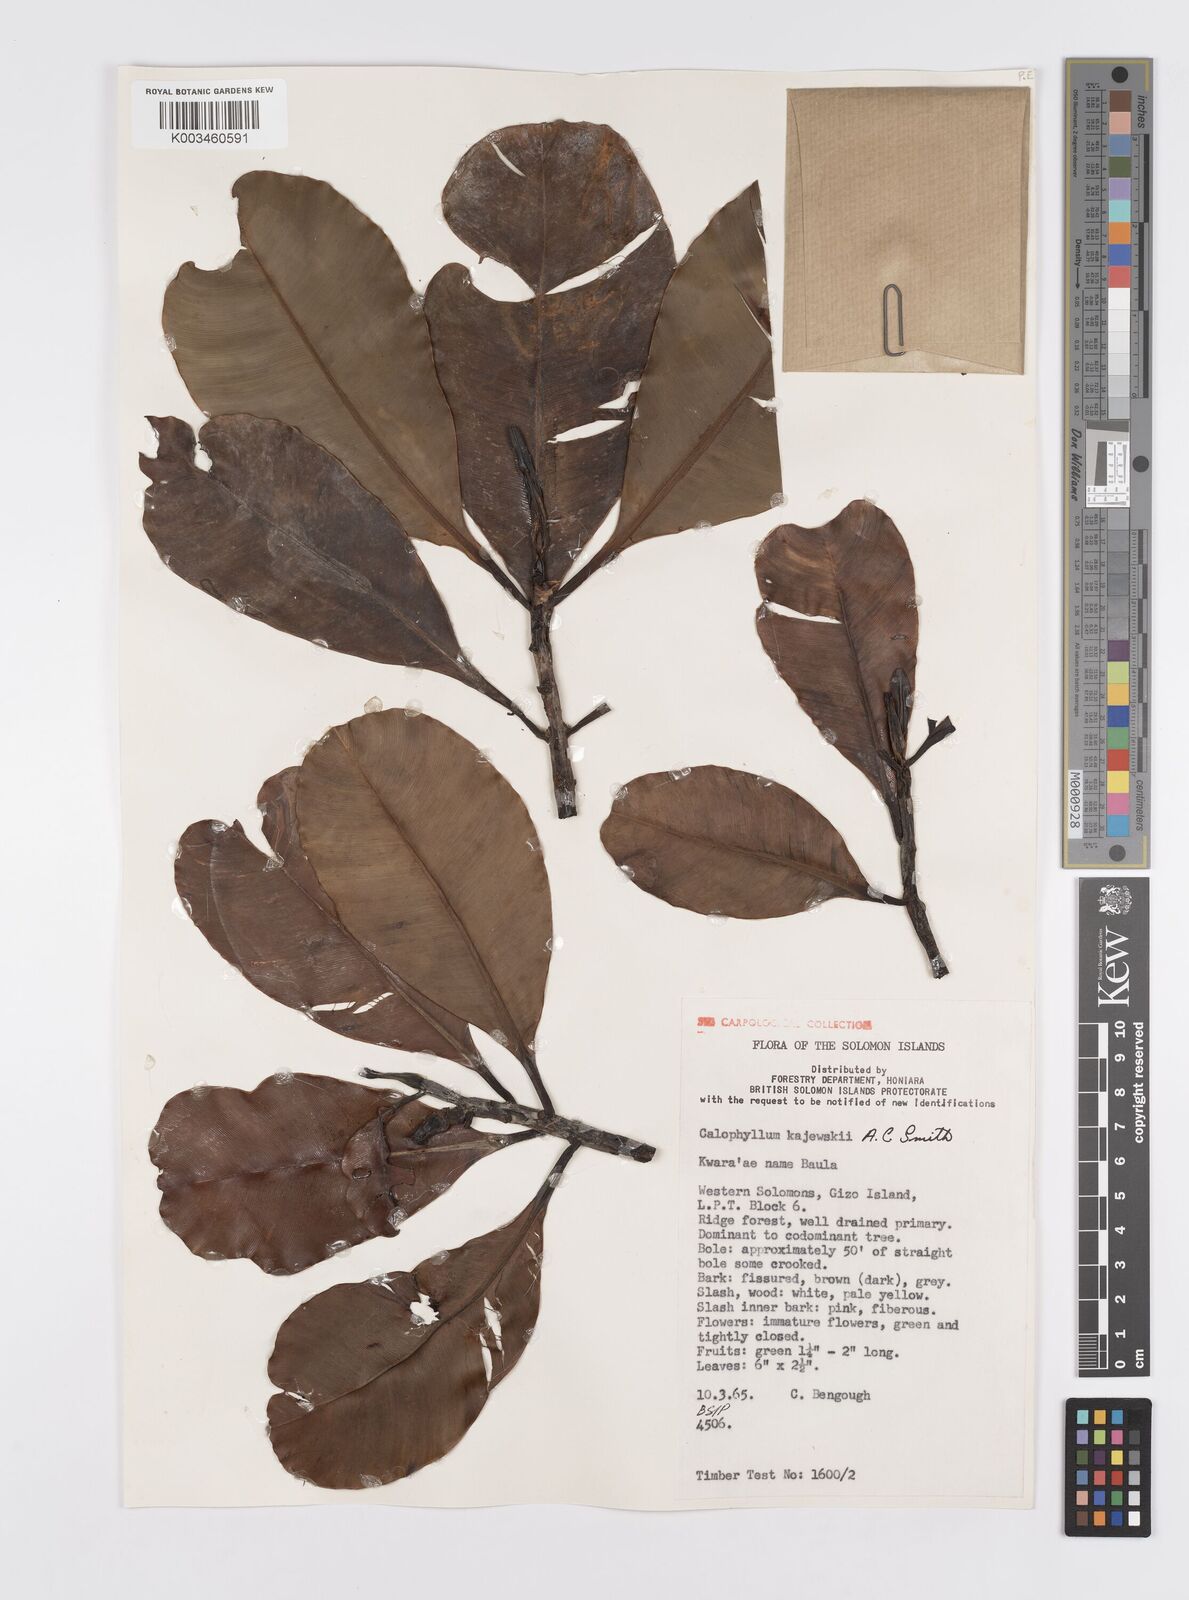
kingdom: Plantae
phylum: Tracheophyta
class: Magnoliopsida
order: Malpighiales
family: Calophyllaceae
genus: Calophyllum
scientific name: Calophyllum peekelii
